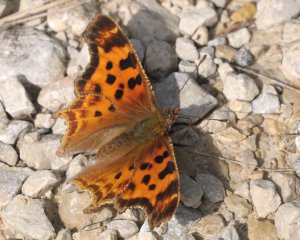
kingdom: Animalia
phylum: Arthropoda
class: Insecta
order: Lepidoptera
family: Nymphalidae
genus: Polygonia
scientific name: Polygonia satyrus
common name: Satyr Comma
